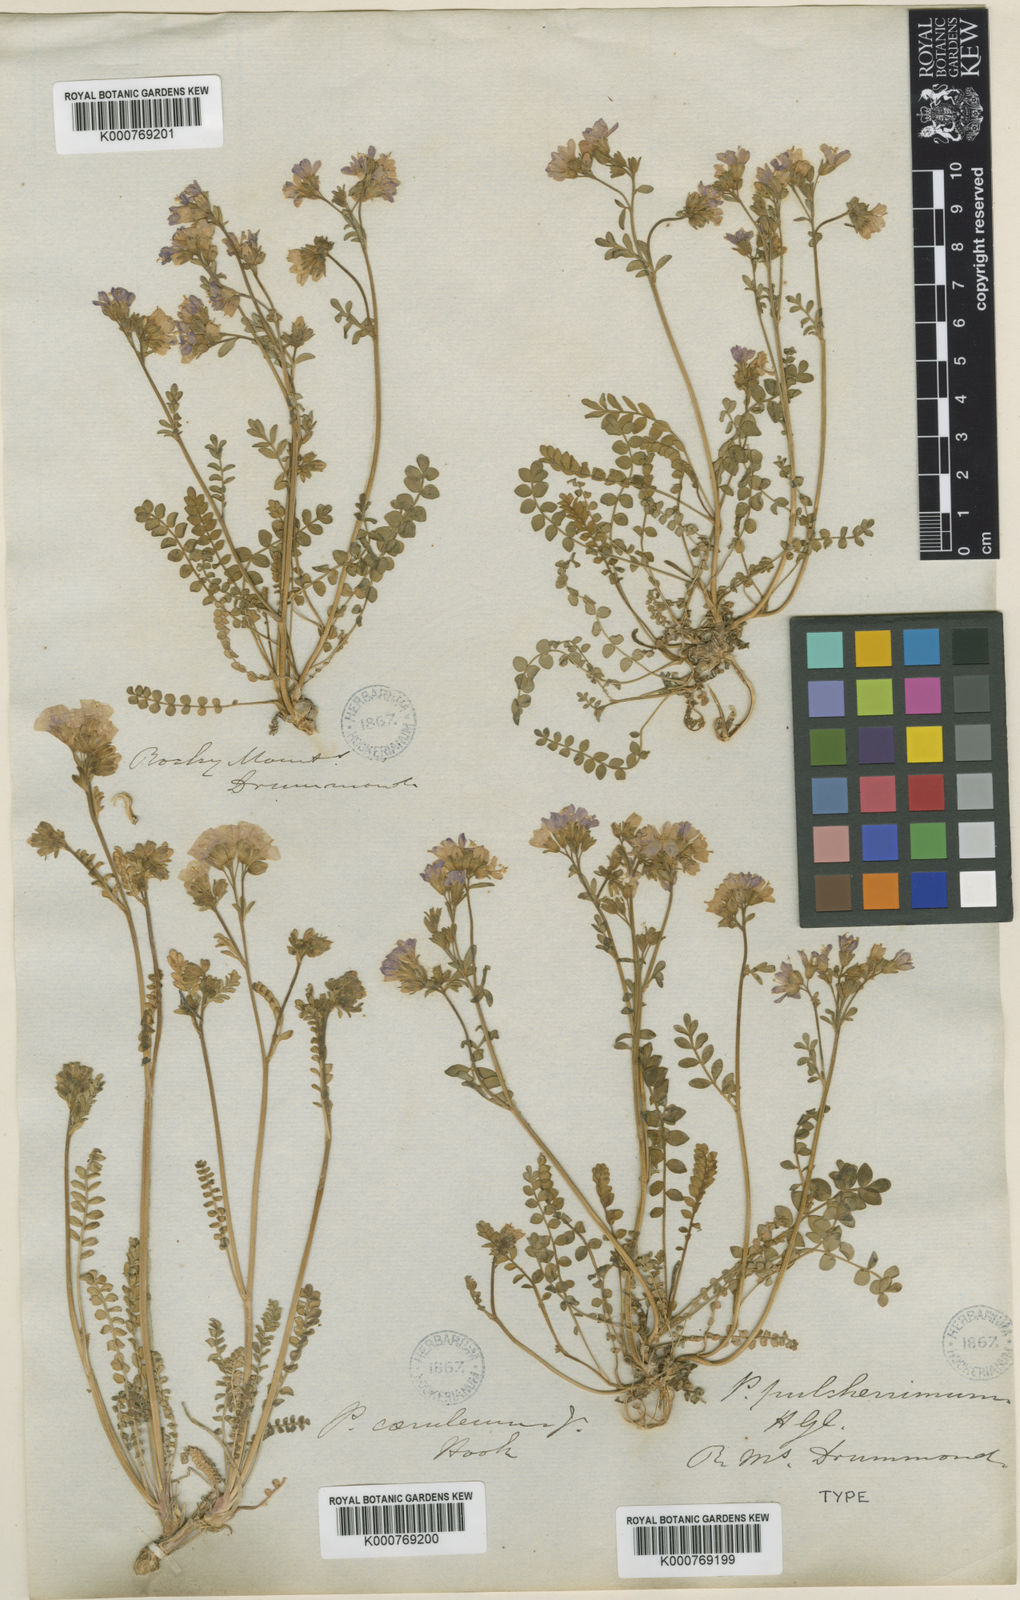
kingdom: Plantae
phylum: Tracheophyta
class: Magnoliopsida
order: Ericales
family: Polemoniaceae
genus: Polemonium
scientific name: Polemonium
